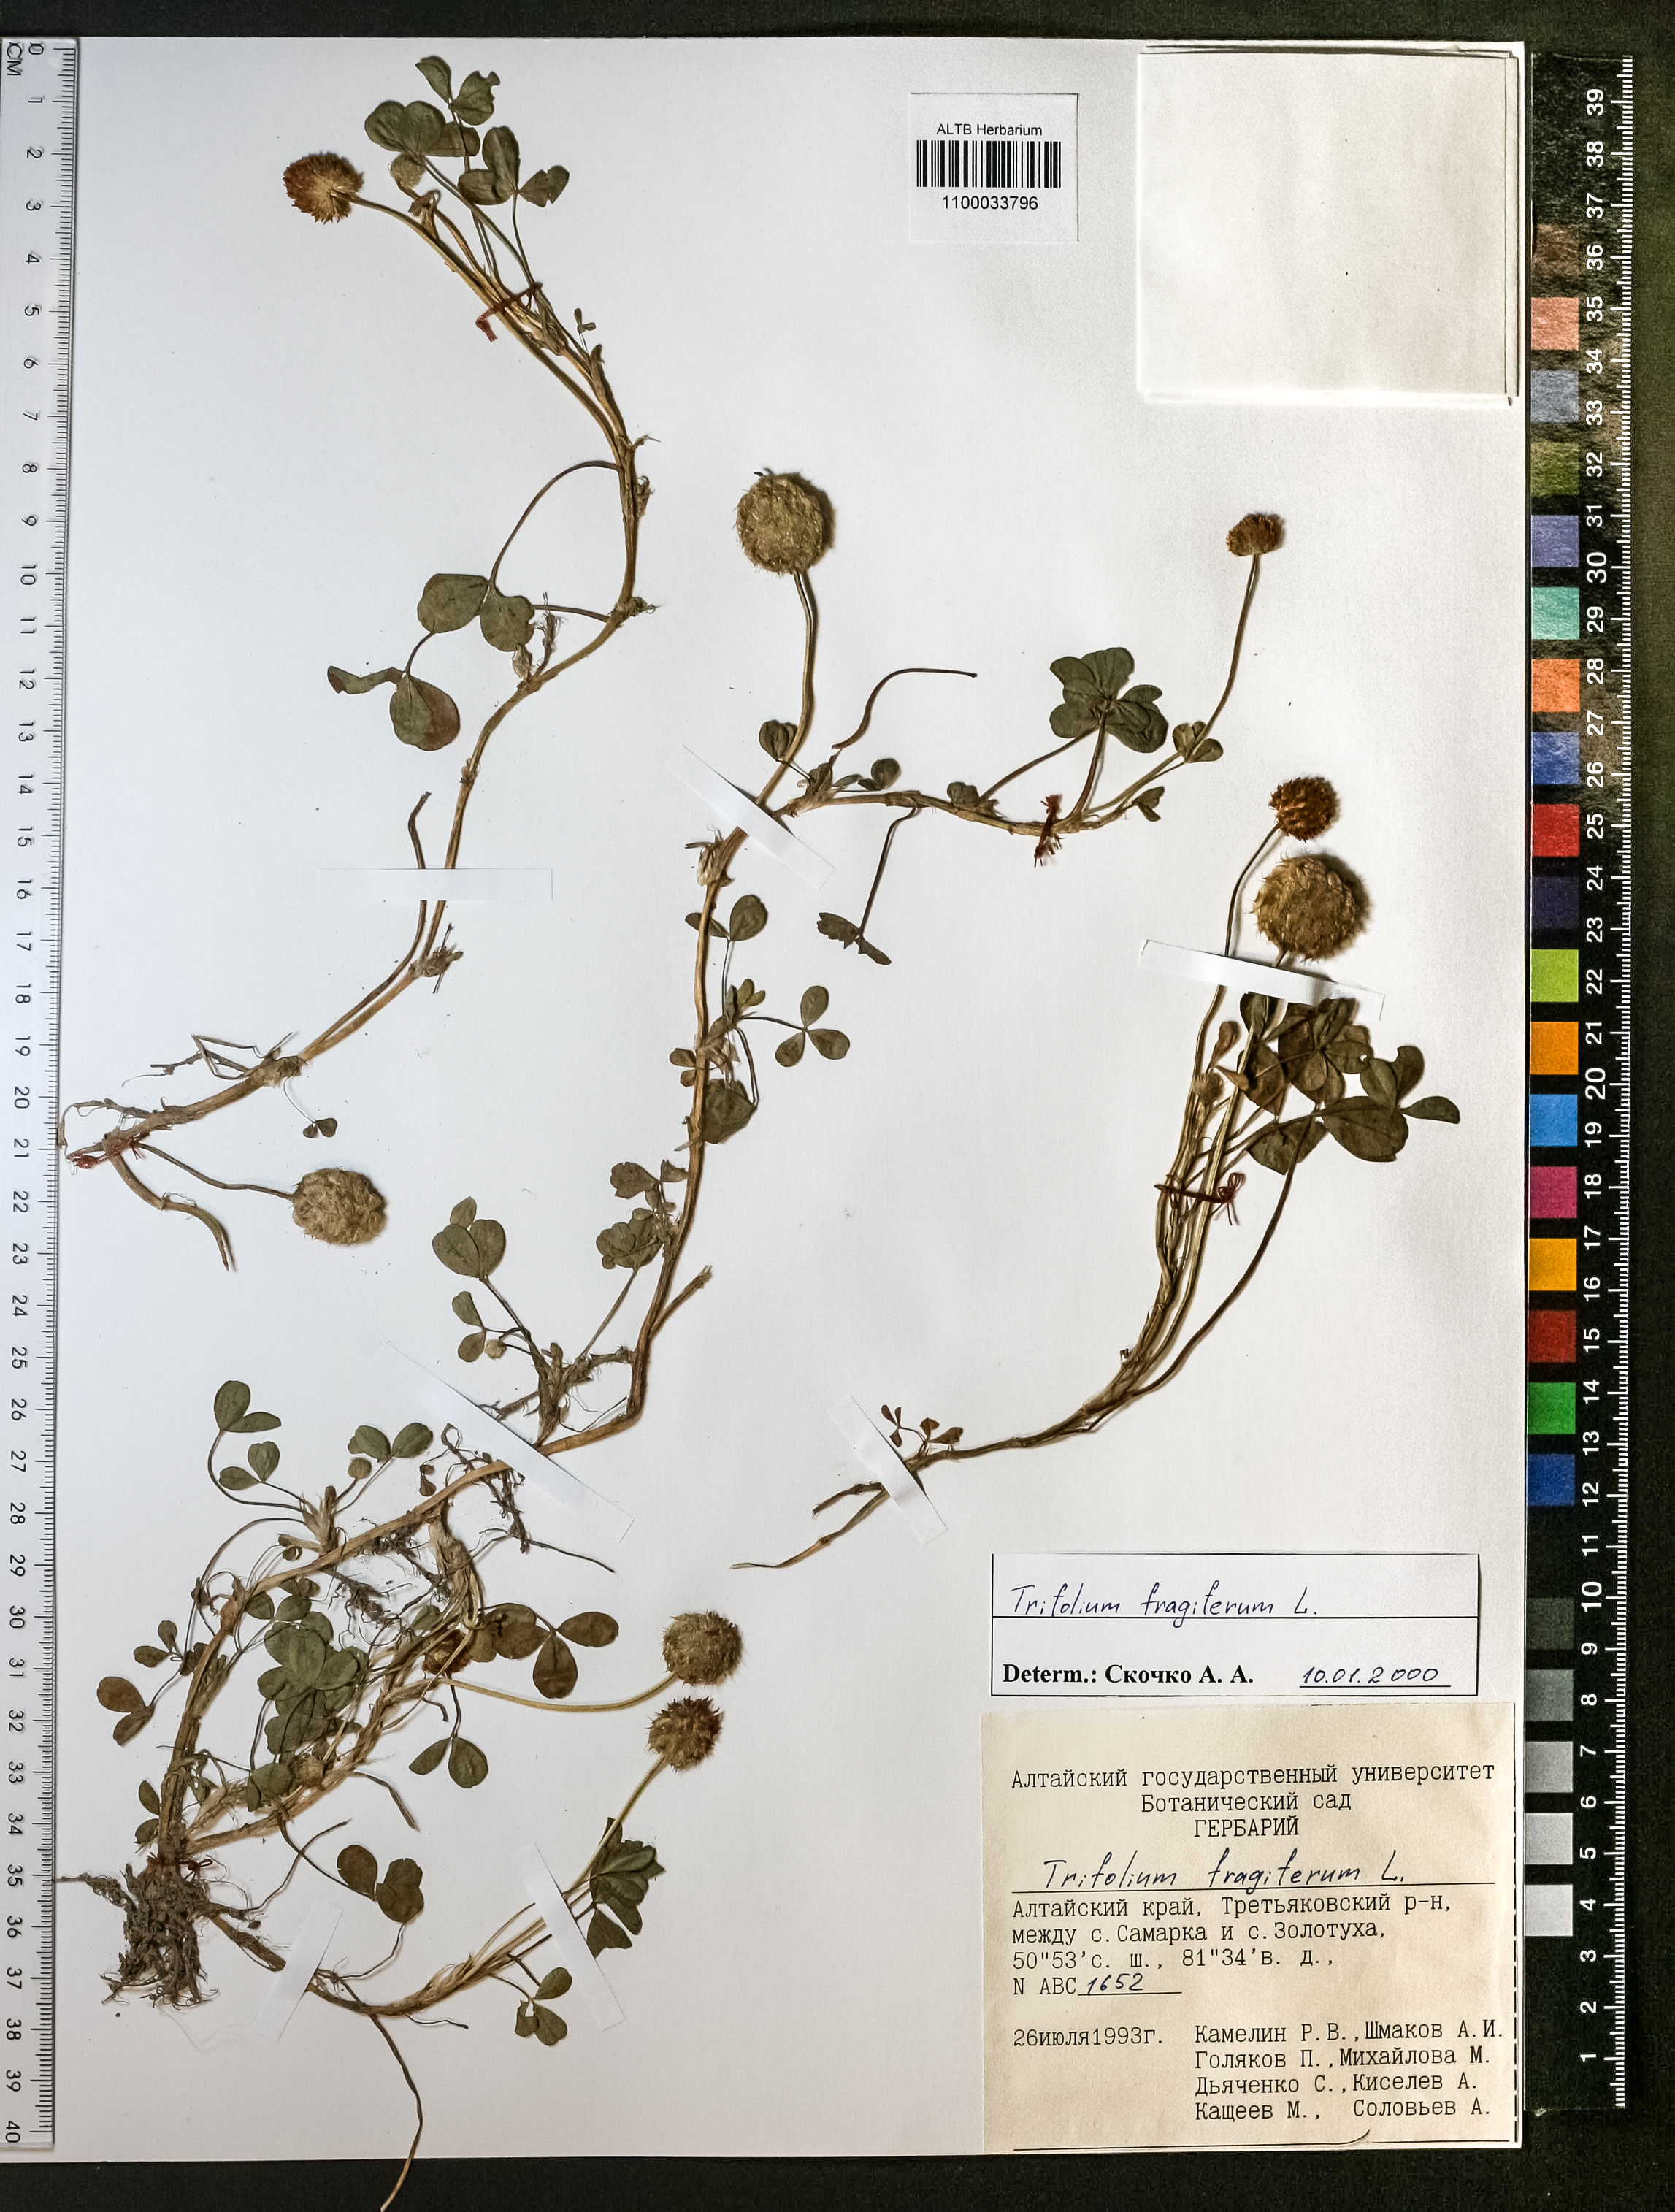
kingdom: Plantae
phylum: Tracheophyta
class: Magnoliopsida
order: Fabales
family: Fabaceae
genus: Trifolium
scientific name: Trifolium fragiferum
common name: Strawberry clover
